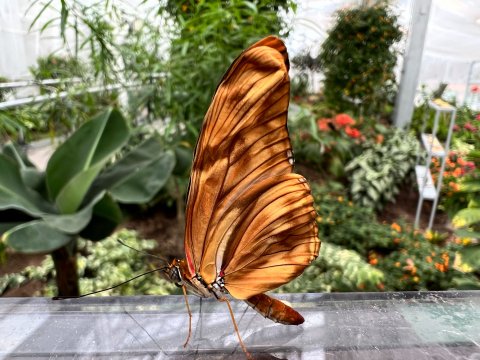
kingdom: Animalia
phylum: Arthropoda
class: Insecta
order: Lepidoptera
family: Nymphalidae
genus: Danaus
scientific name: Danaus plexippus
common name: Monarch
